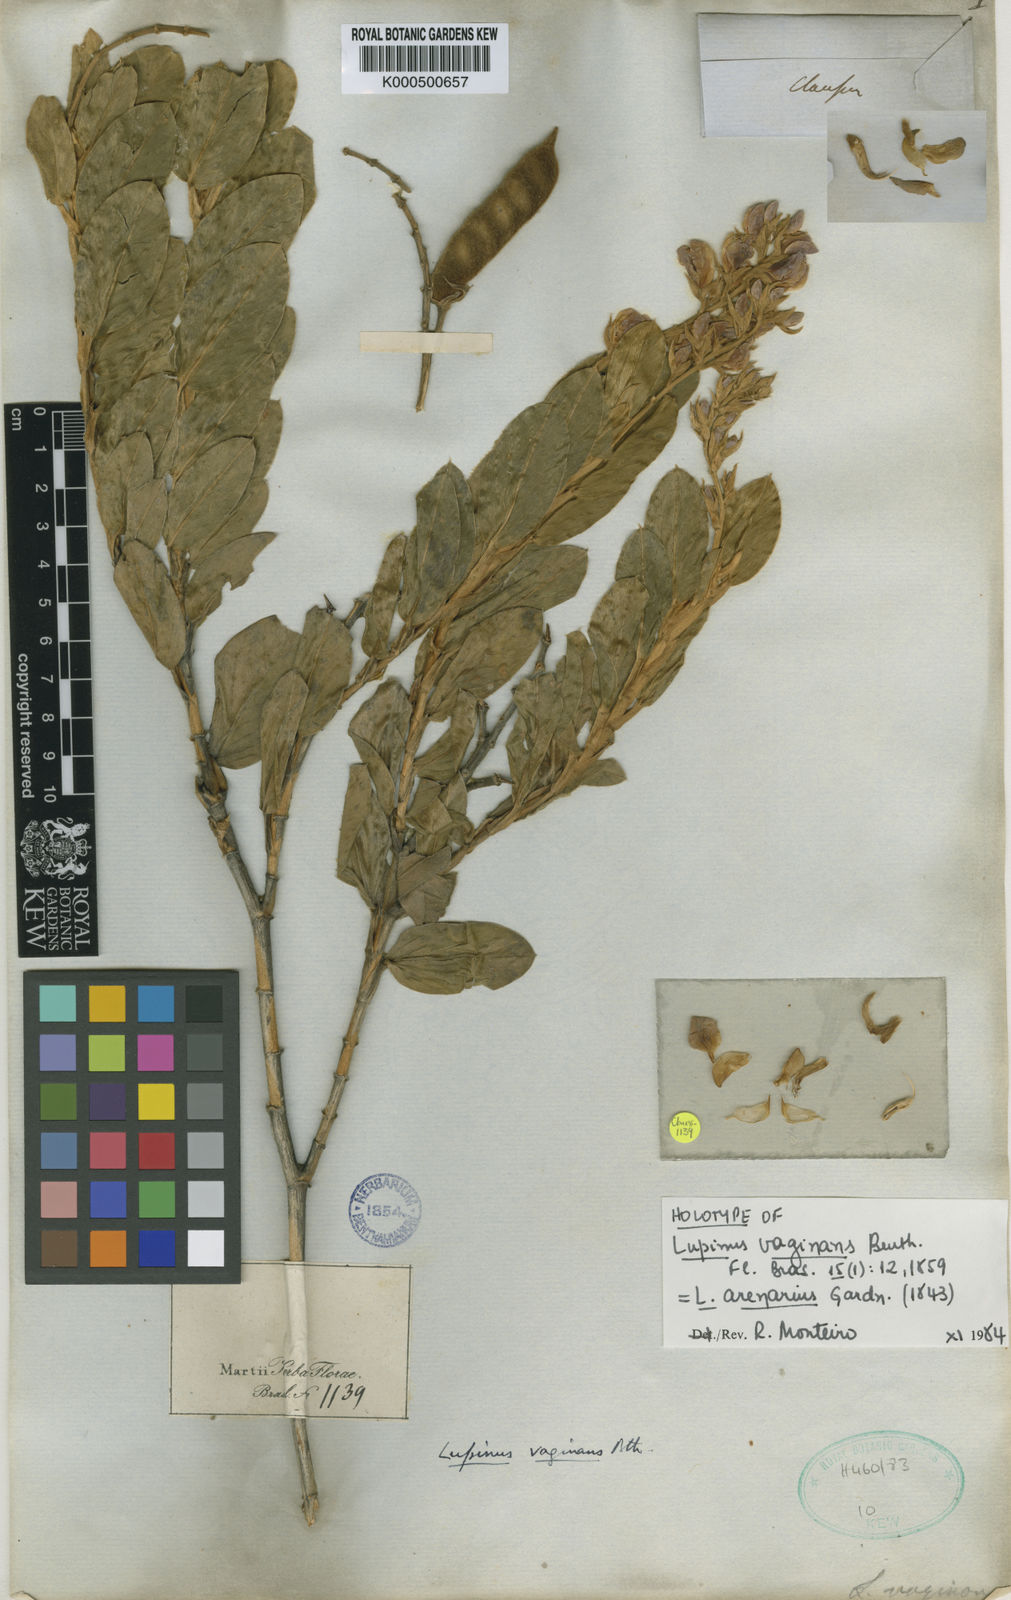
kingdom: Plantae
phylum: Tracheophyta
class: Magnoliopsida
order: Fabales
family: Fabaceae
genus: Lupinus
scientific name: Lupinus arenarius
